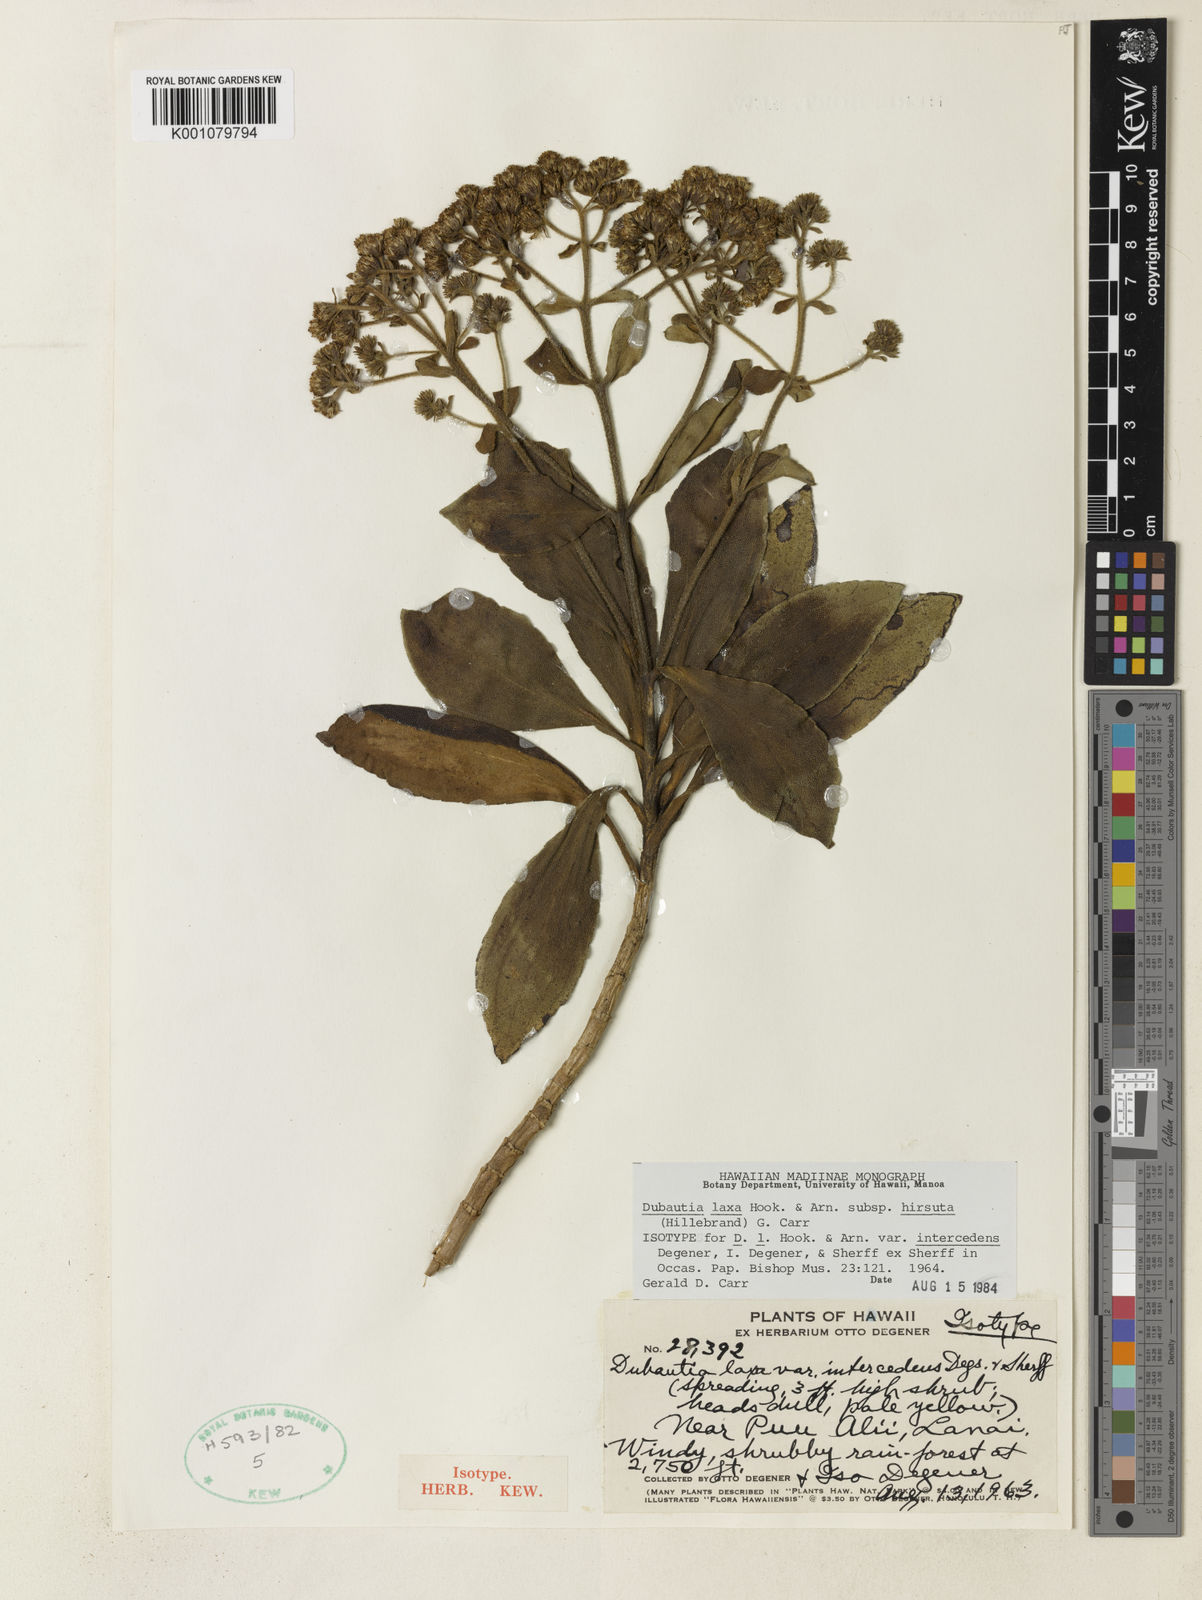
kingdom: Plantae
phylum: Tracheophyta
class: Magnoliopsida
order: Asterales
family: Asteraceae
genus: Dubautia
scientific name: Dubautia
